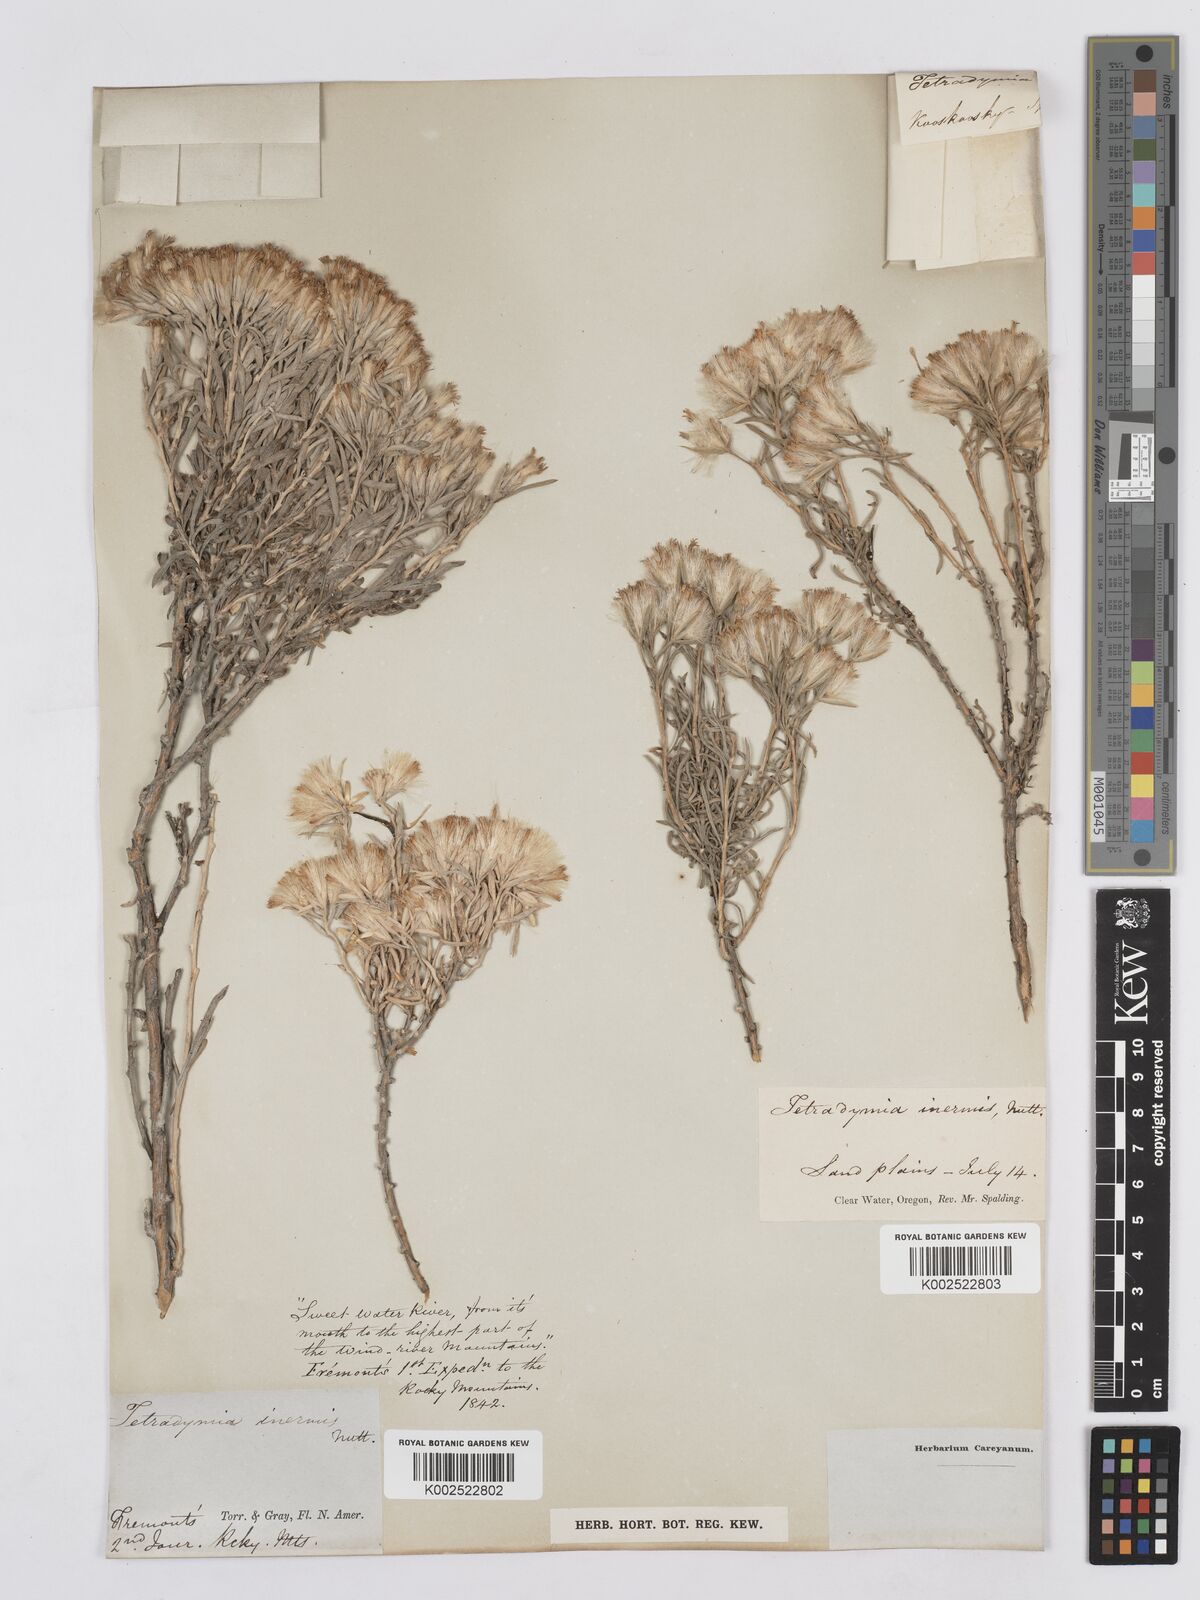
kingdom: Plantae
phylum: Tracheophyta
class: Magnoliopsida
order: Asterales
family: Asteraceae
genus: Tetradymia
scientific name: Tetradymia canescens
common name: Spineless horsebrush
